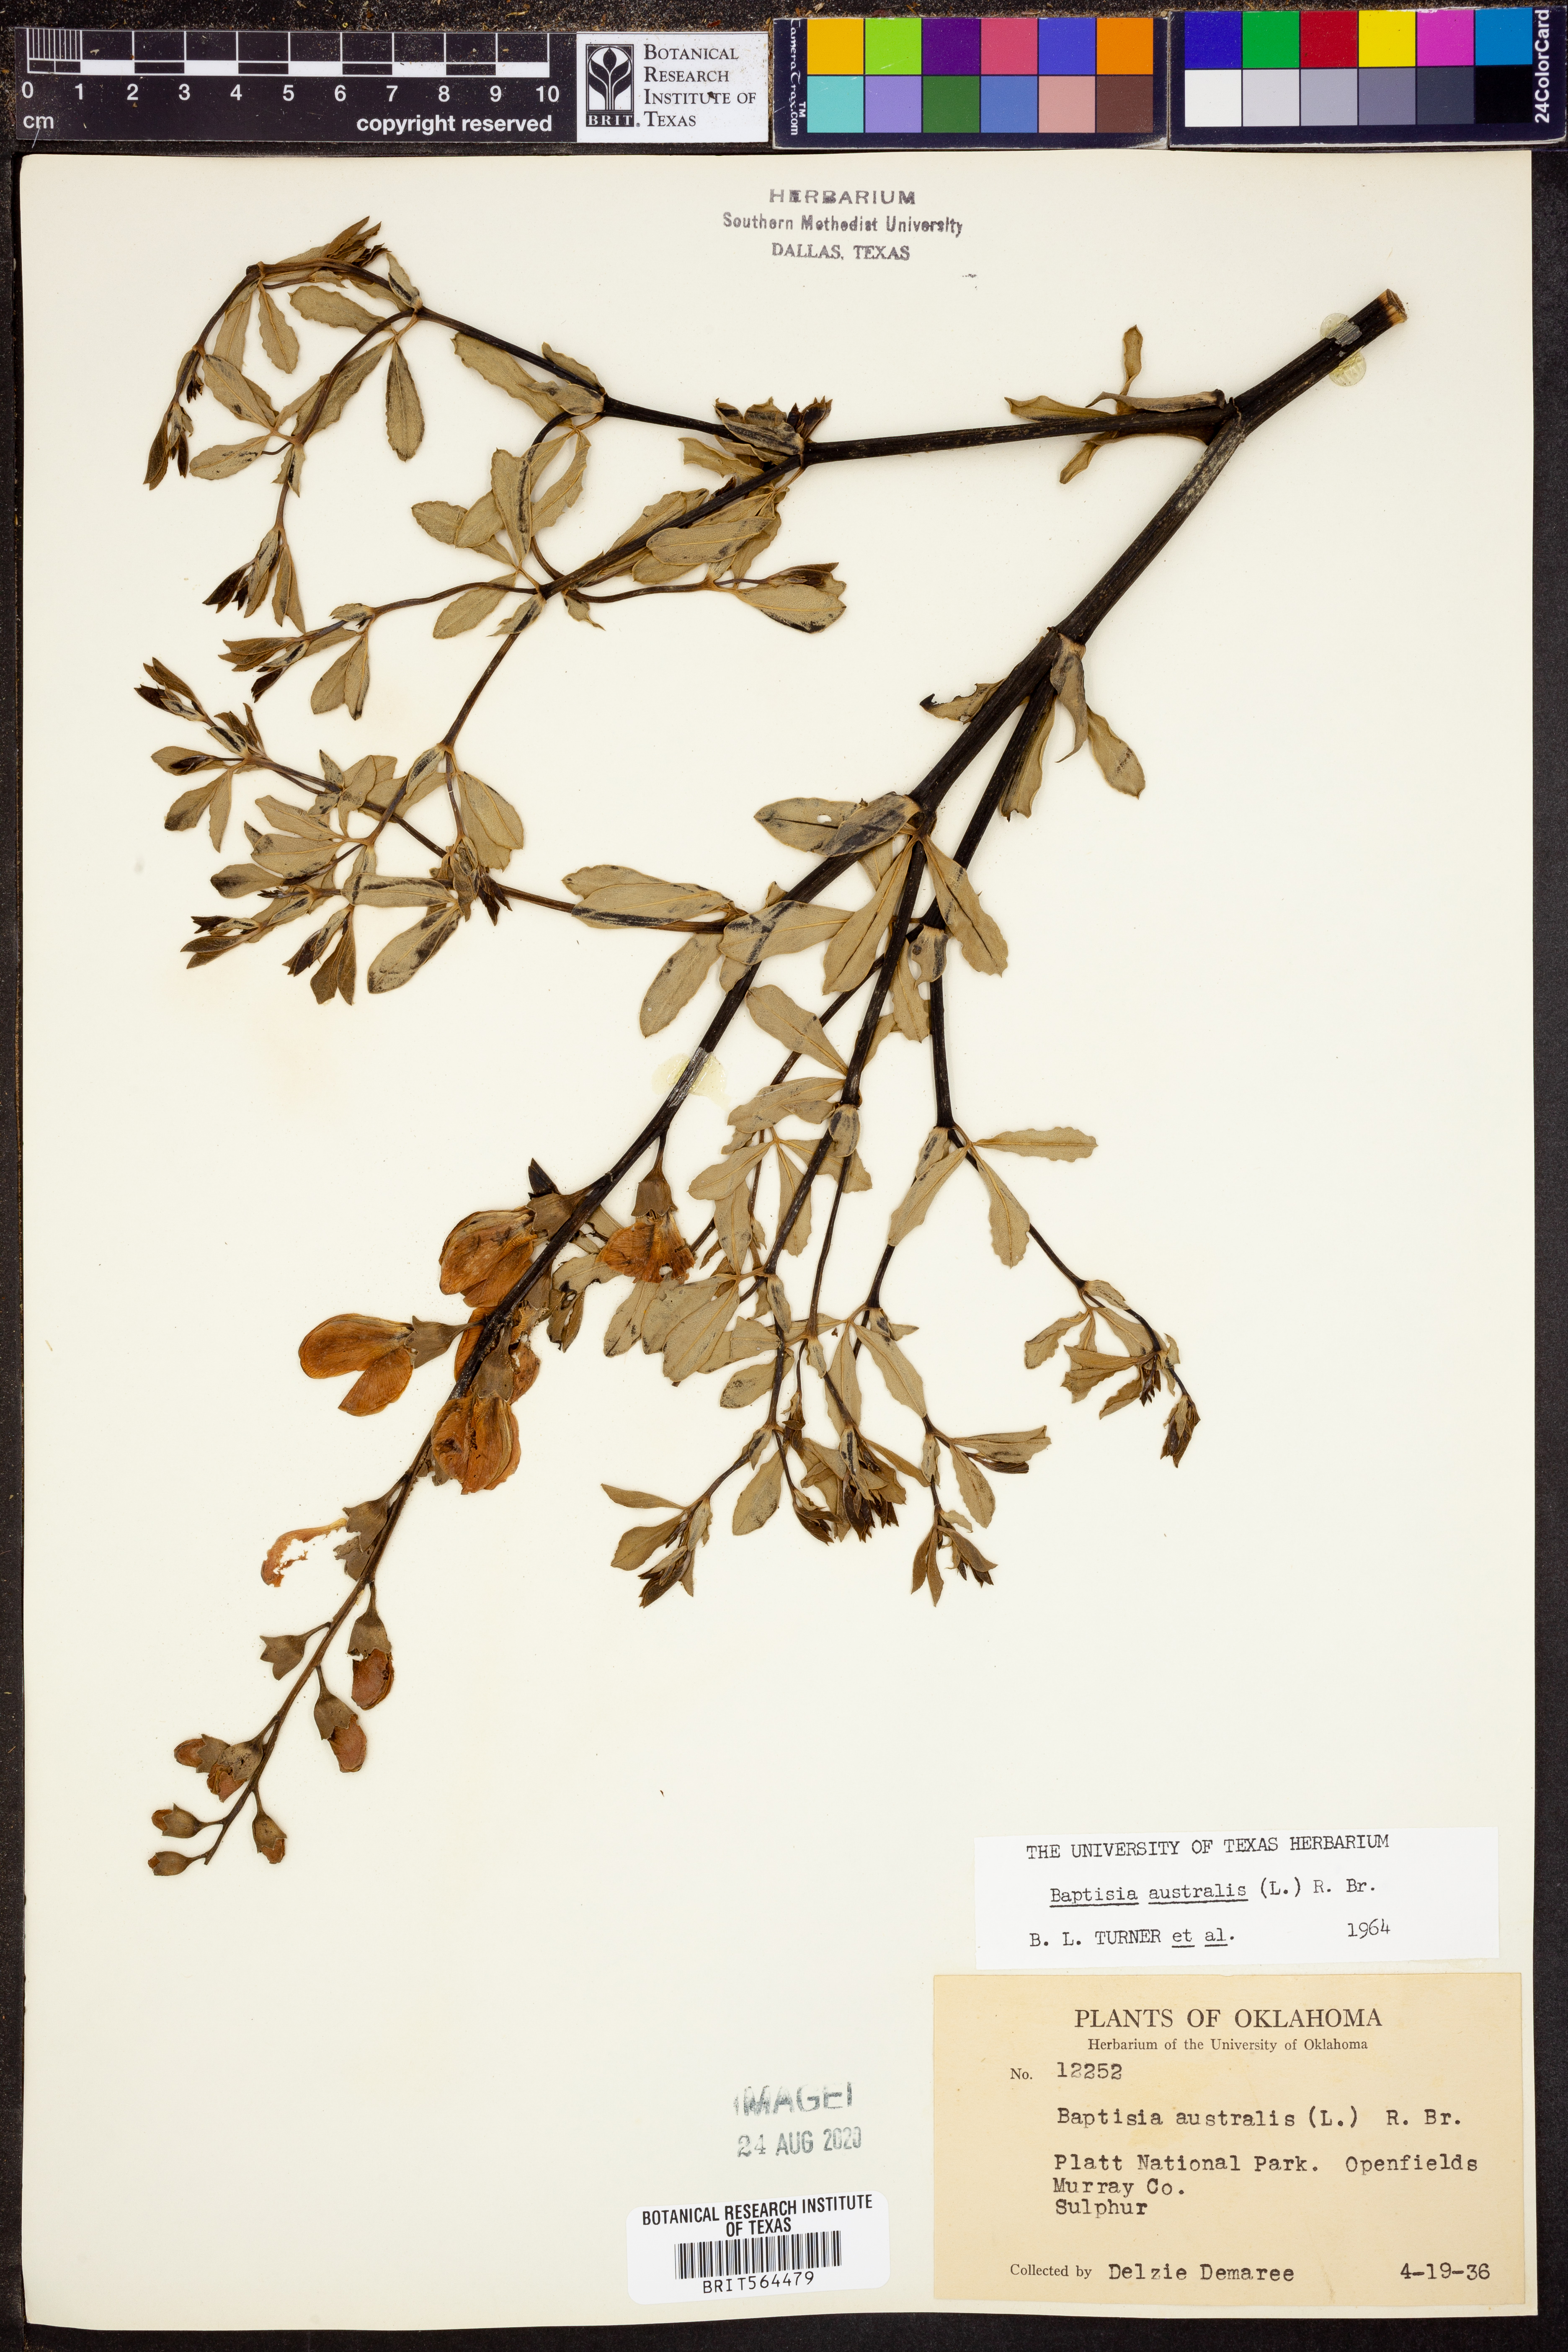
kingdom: Plantae
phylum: Tracheophyta
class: Magnoliopsida
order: Fabales
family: Fabaceae
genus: Baptisia
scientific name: Baptisia australis
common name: Blue false indigo
